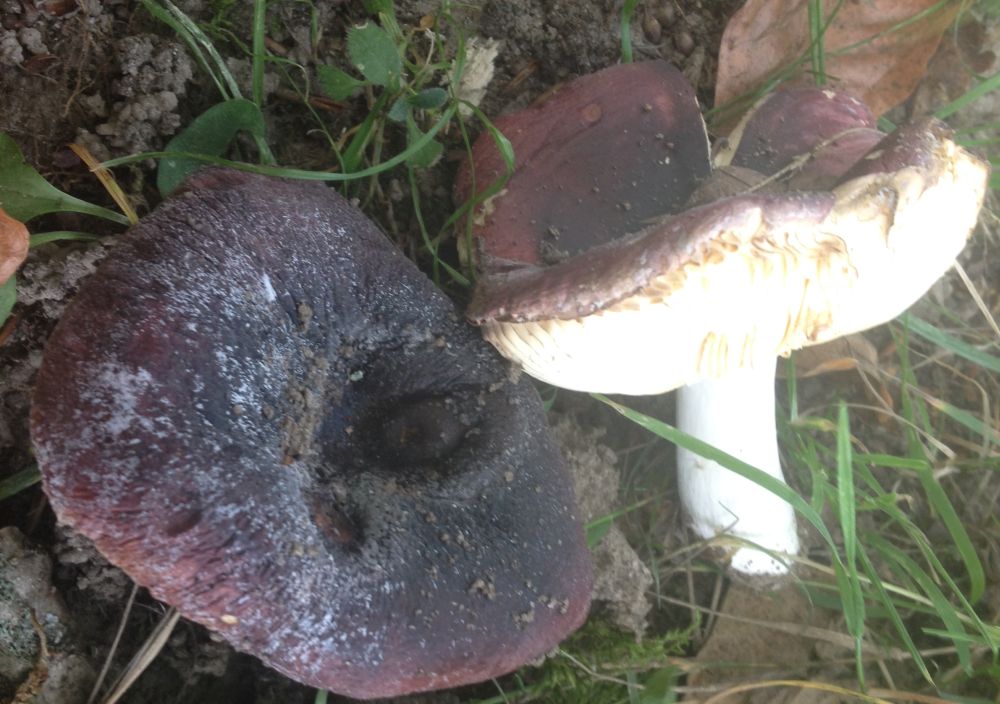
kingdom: Fungi
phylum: Basidiomycota
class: Agaricomycetes
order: Russulales
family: Russulaceae
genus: Russula
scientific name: Russula atropurpurea
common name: purpurbroget skørhat
